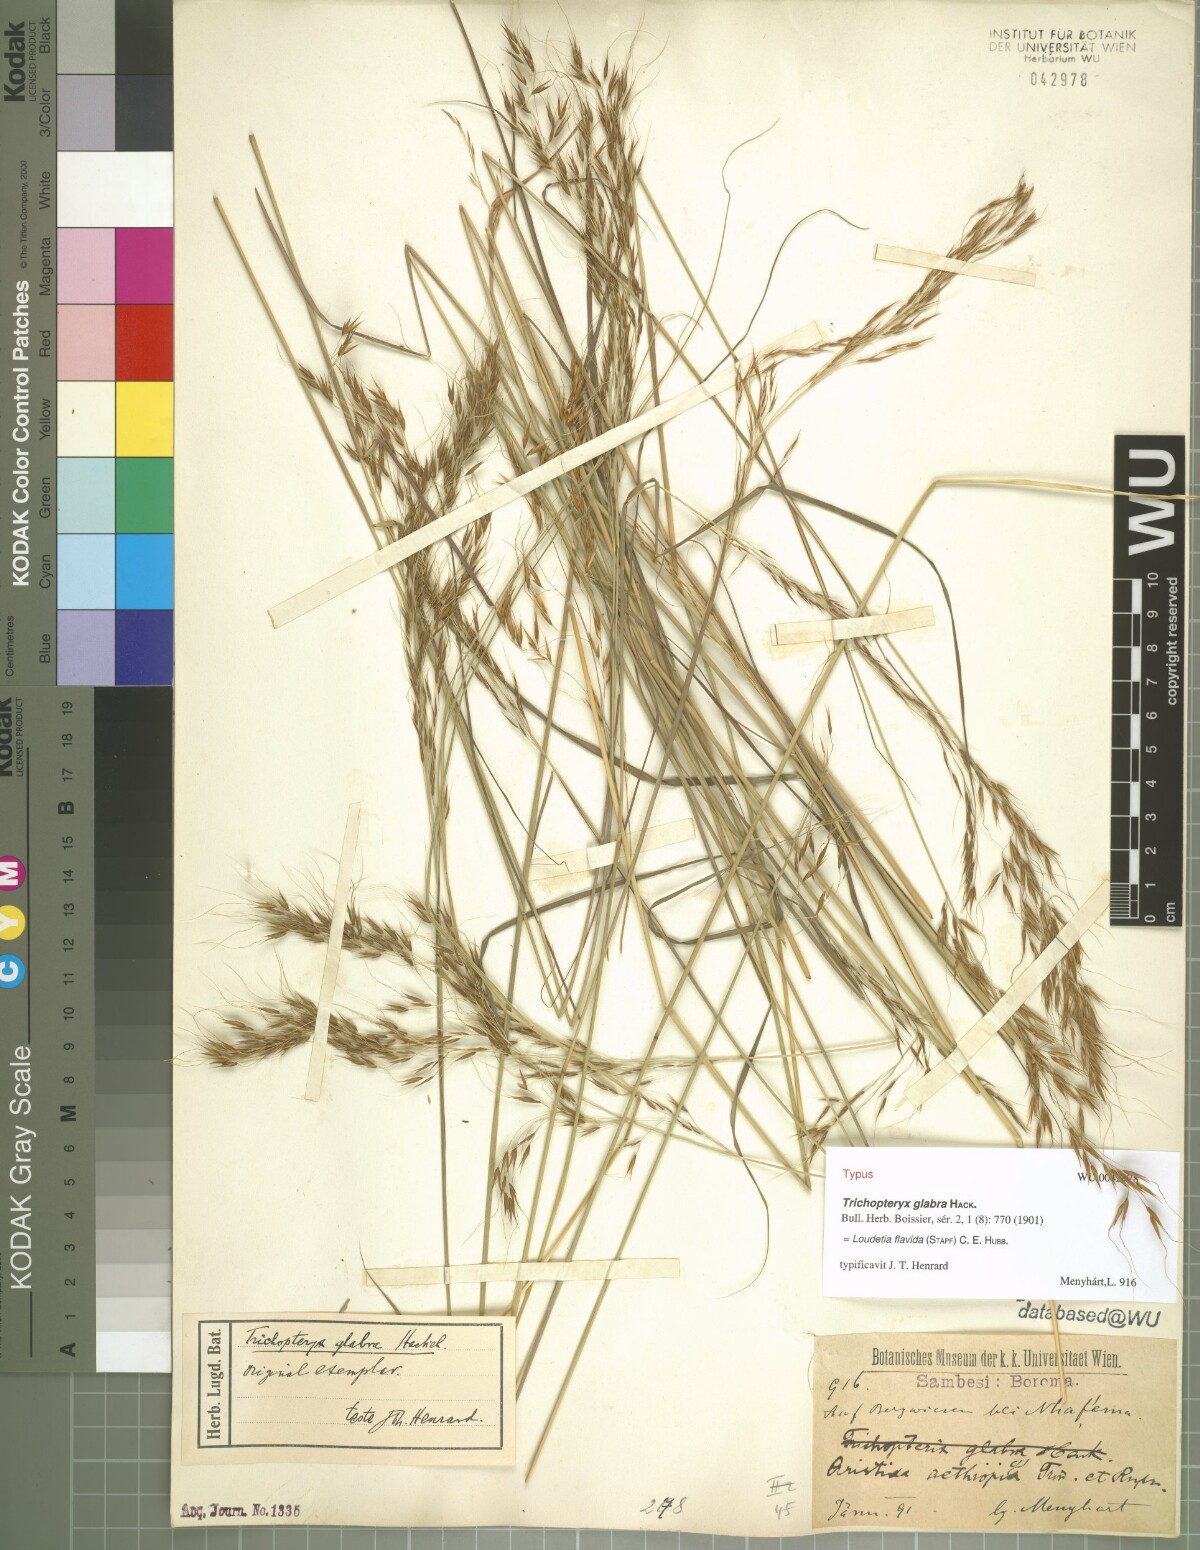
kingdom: Plantae
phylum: Tracheophyta
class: Liliopsida
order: Poales
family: Poaceae
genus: Loudetia
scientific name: Loudetia flavida
